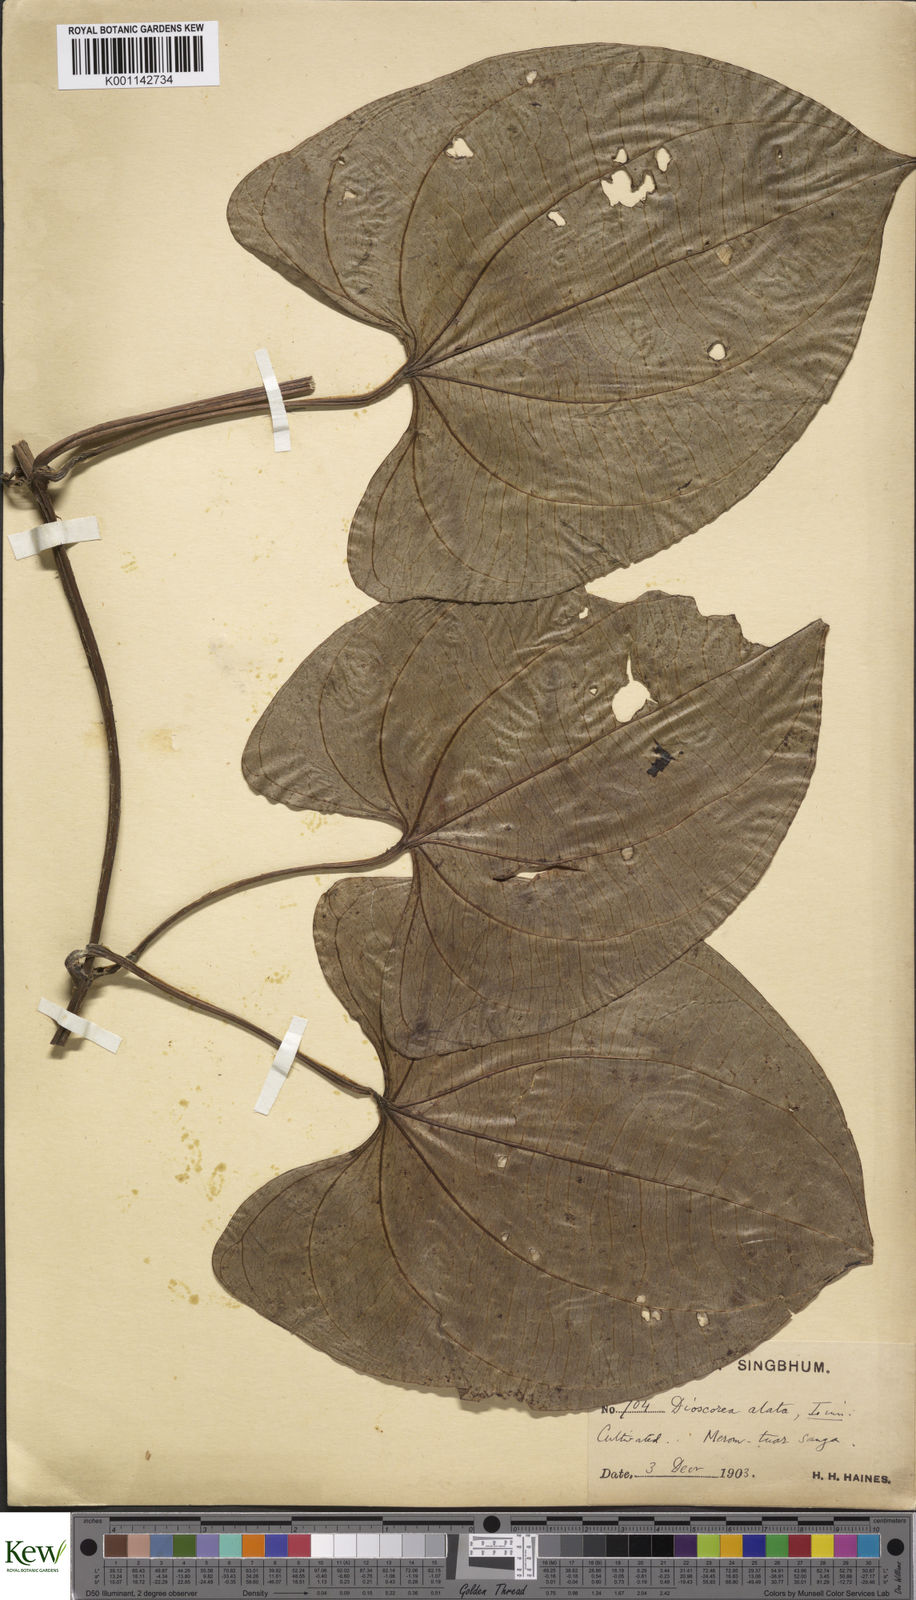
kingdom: Plantae
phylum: Tracheophyta
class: Liliopsida
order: Dioscoreales
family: Dioscoreaceae
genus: Dioscorea
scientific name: Dioscorea alata
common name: Water yam
